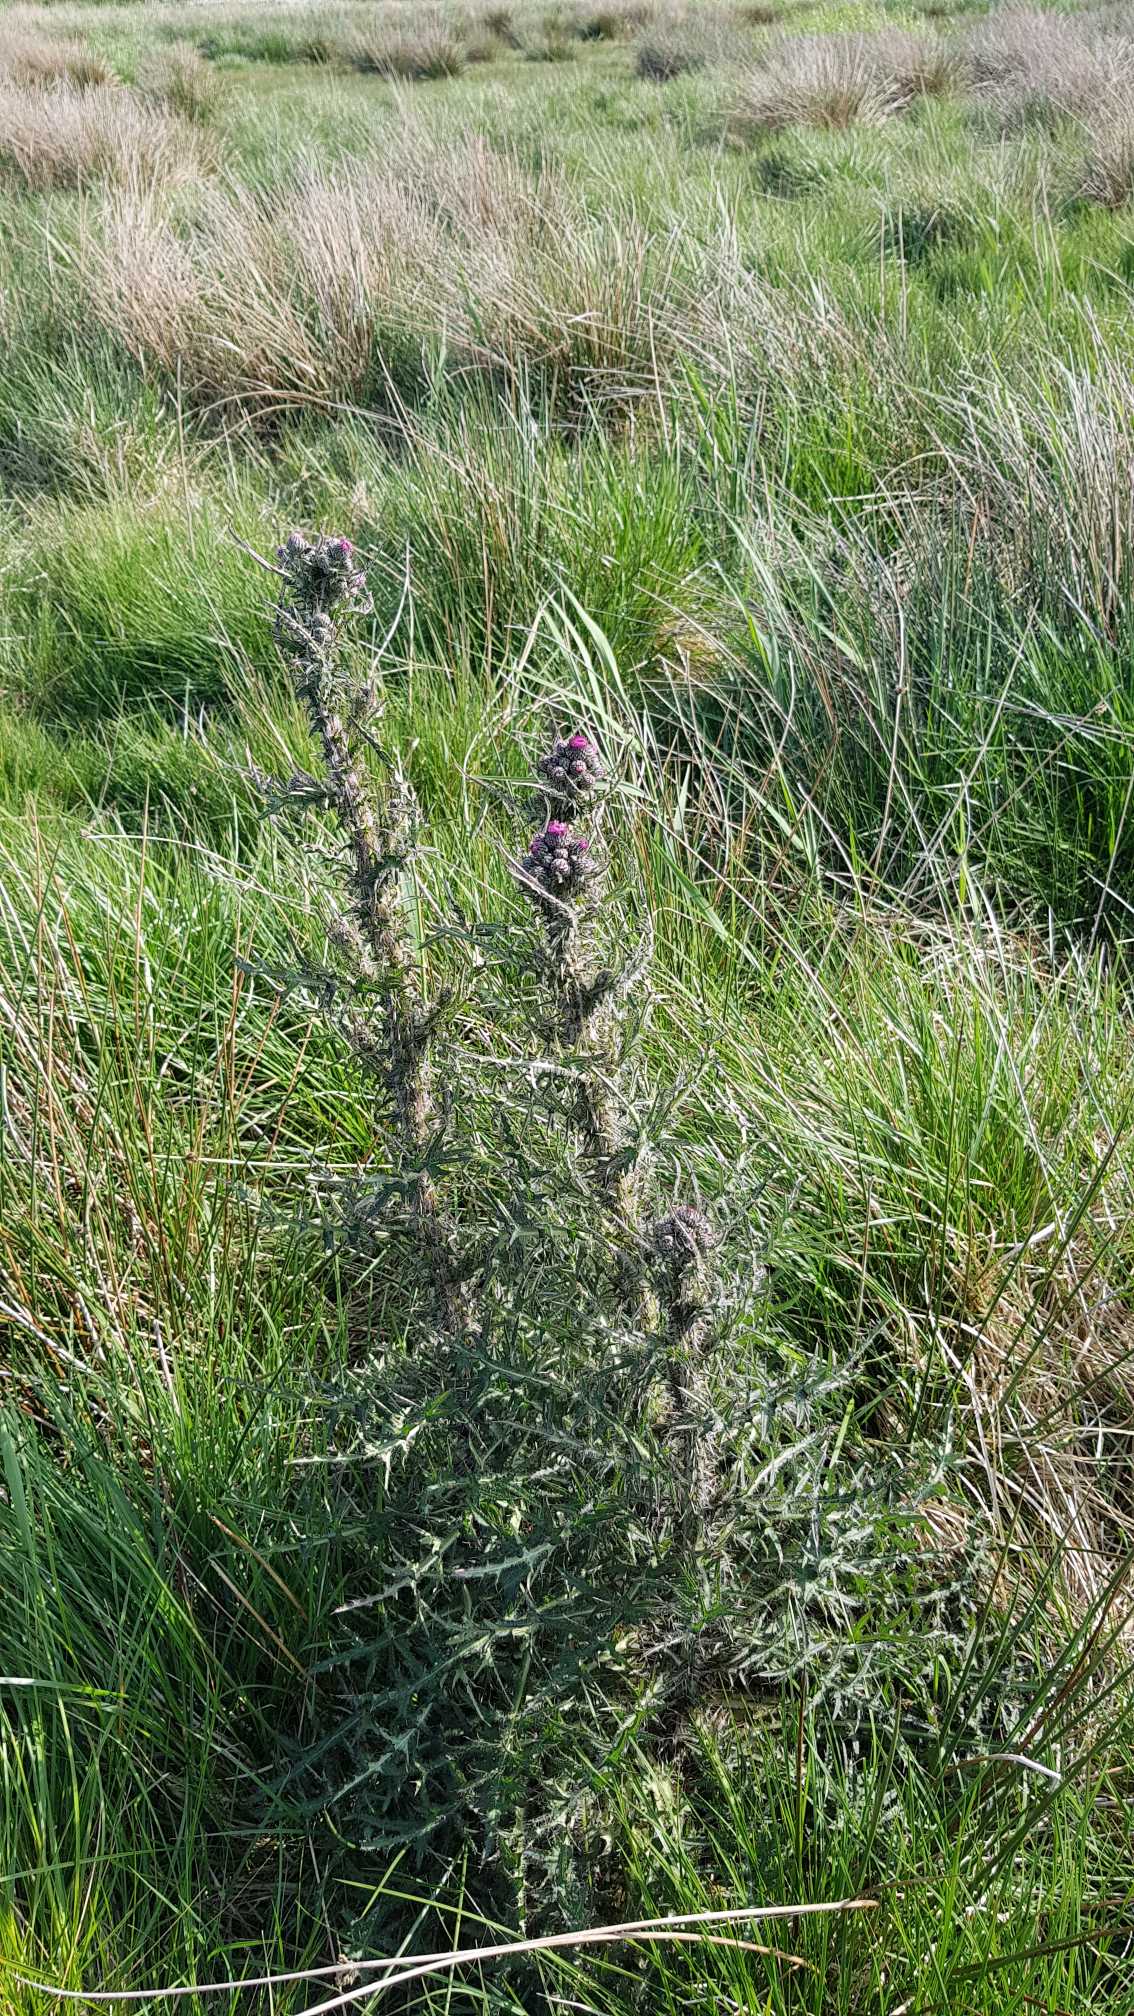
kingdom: Plantae
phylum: Tracheophyta
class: Magnoliopsida
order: Asterales
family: Asteraceae
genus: Cirsium
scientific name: Cirsium palustre
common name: Kær-tidsel
